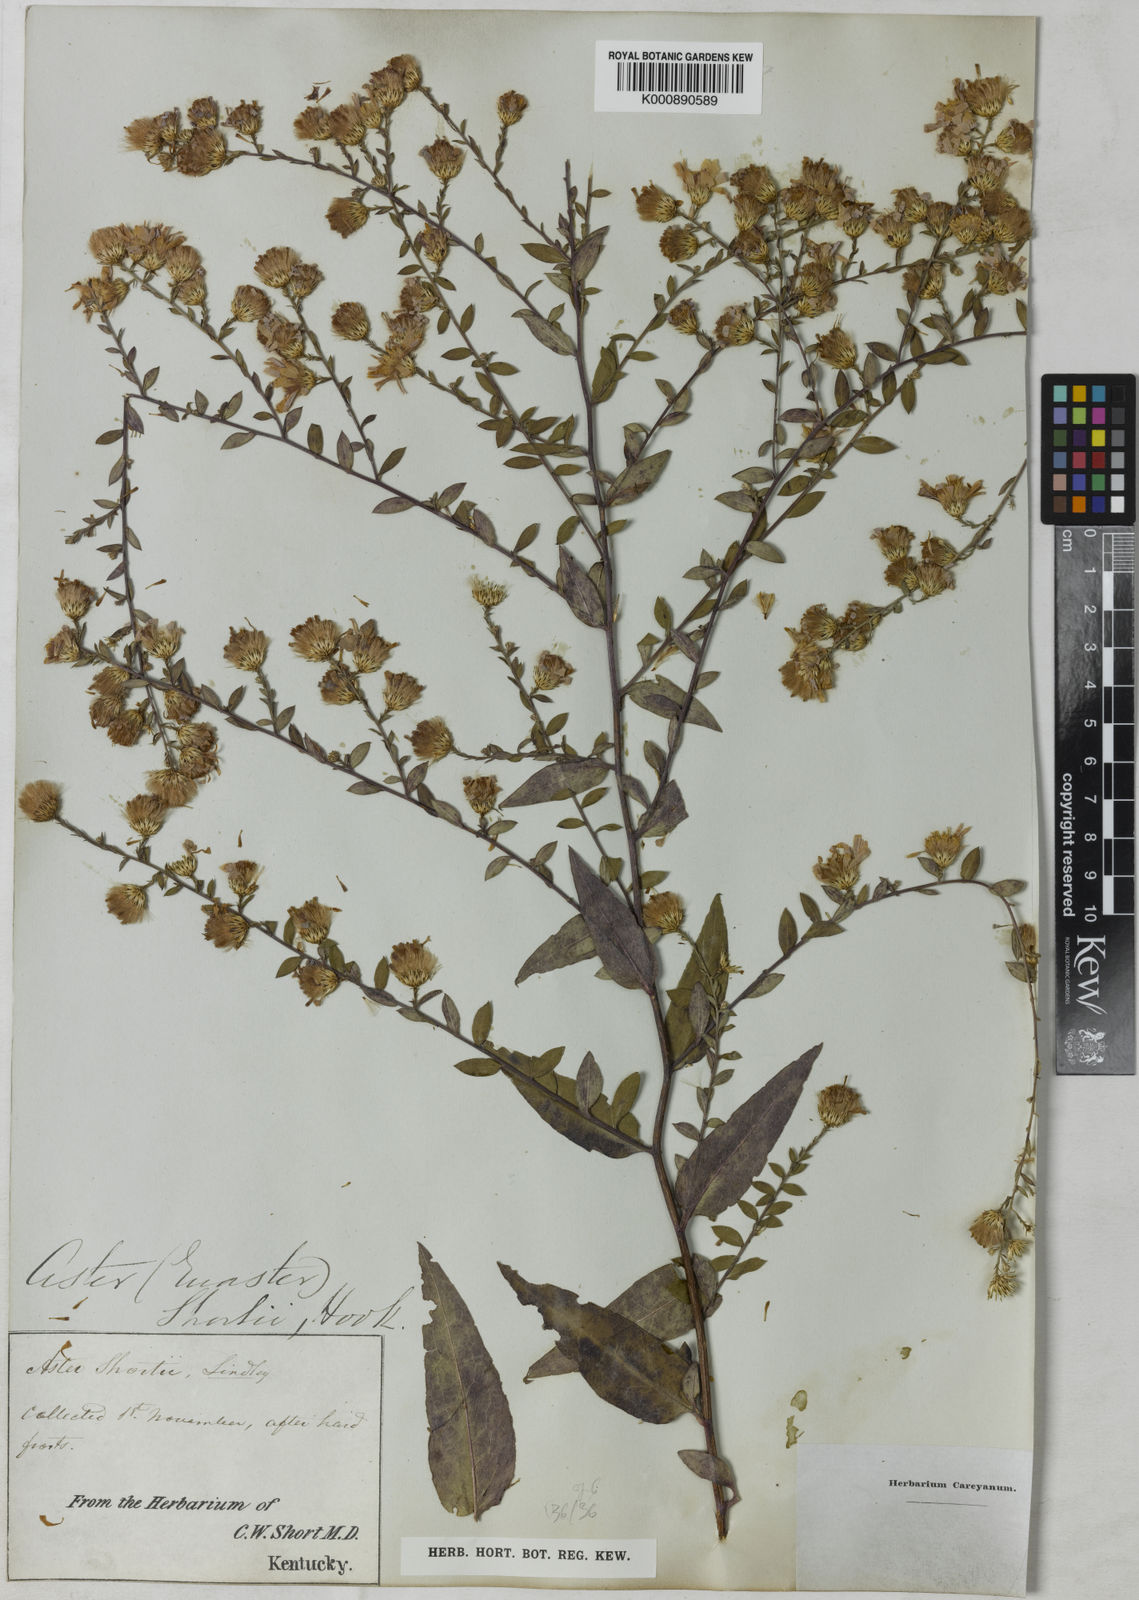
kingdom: Plantae
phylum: Tracheophyta
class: Magnoliopsida
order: Asterales
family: Asteraceae
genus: Aster
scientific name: Aster shortii
